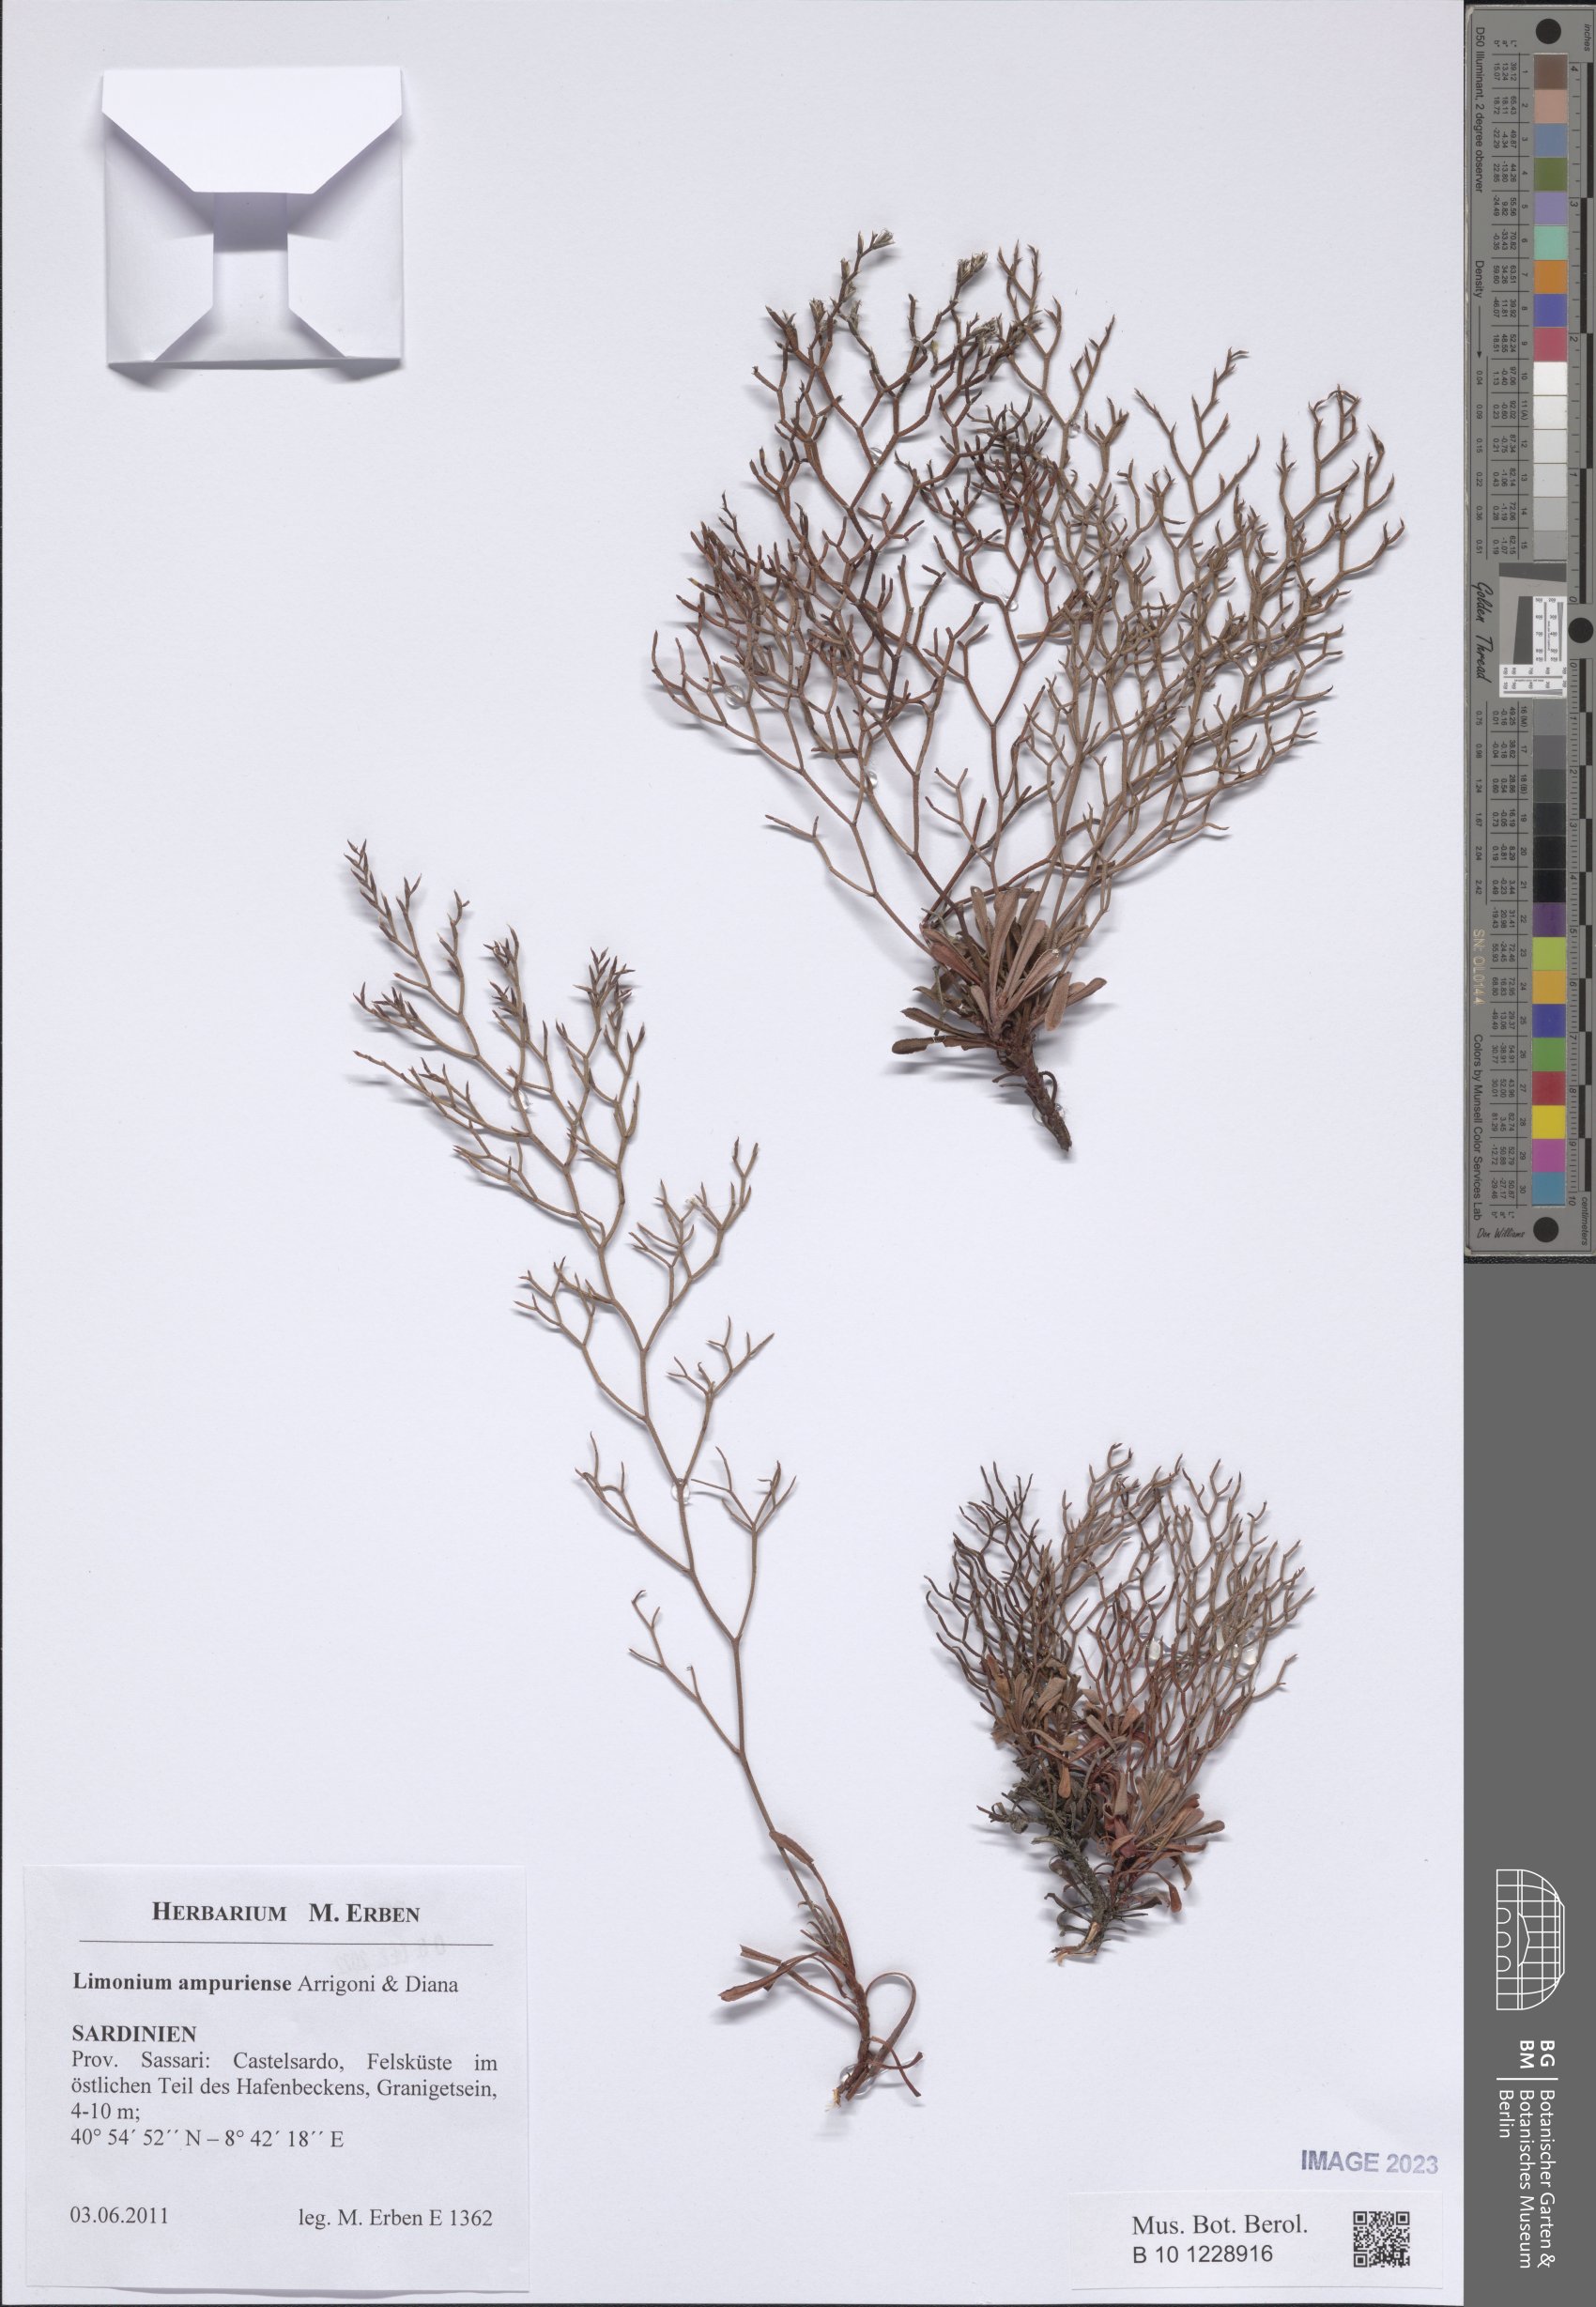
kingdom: Plantae
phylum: Tracheophyta
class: Magnoliopsida
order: Caryophyllales
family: Plumbaginaceae
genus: Limonium
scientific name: Limonium ampuriense
